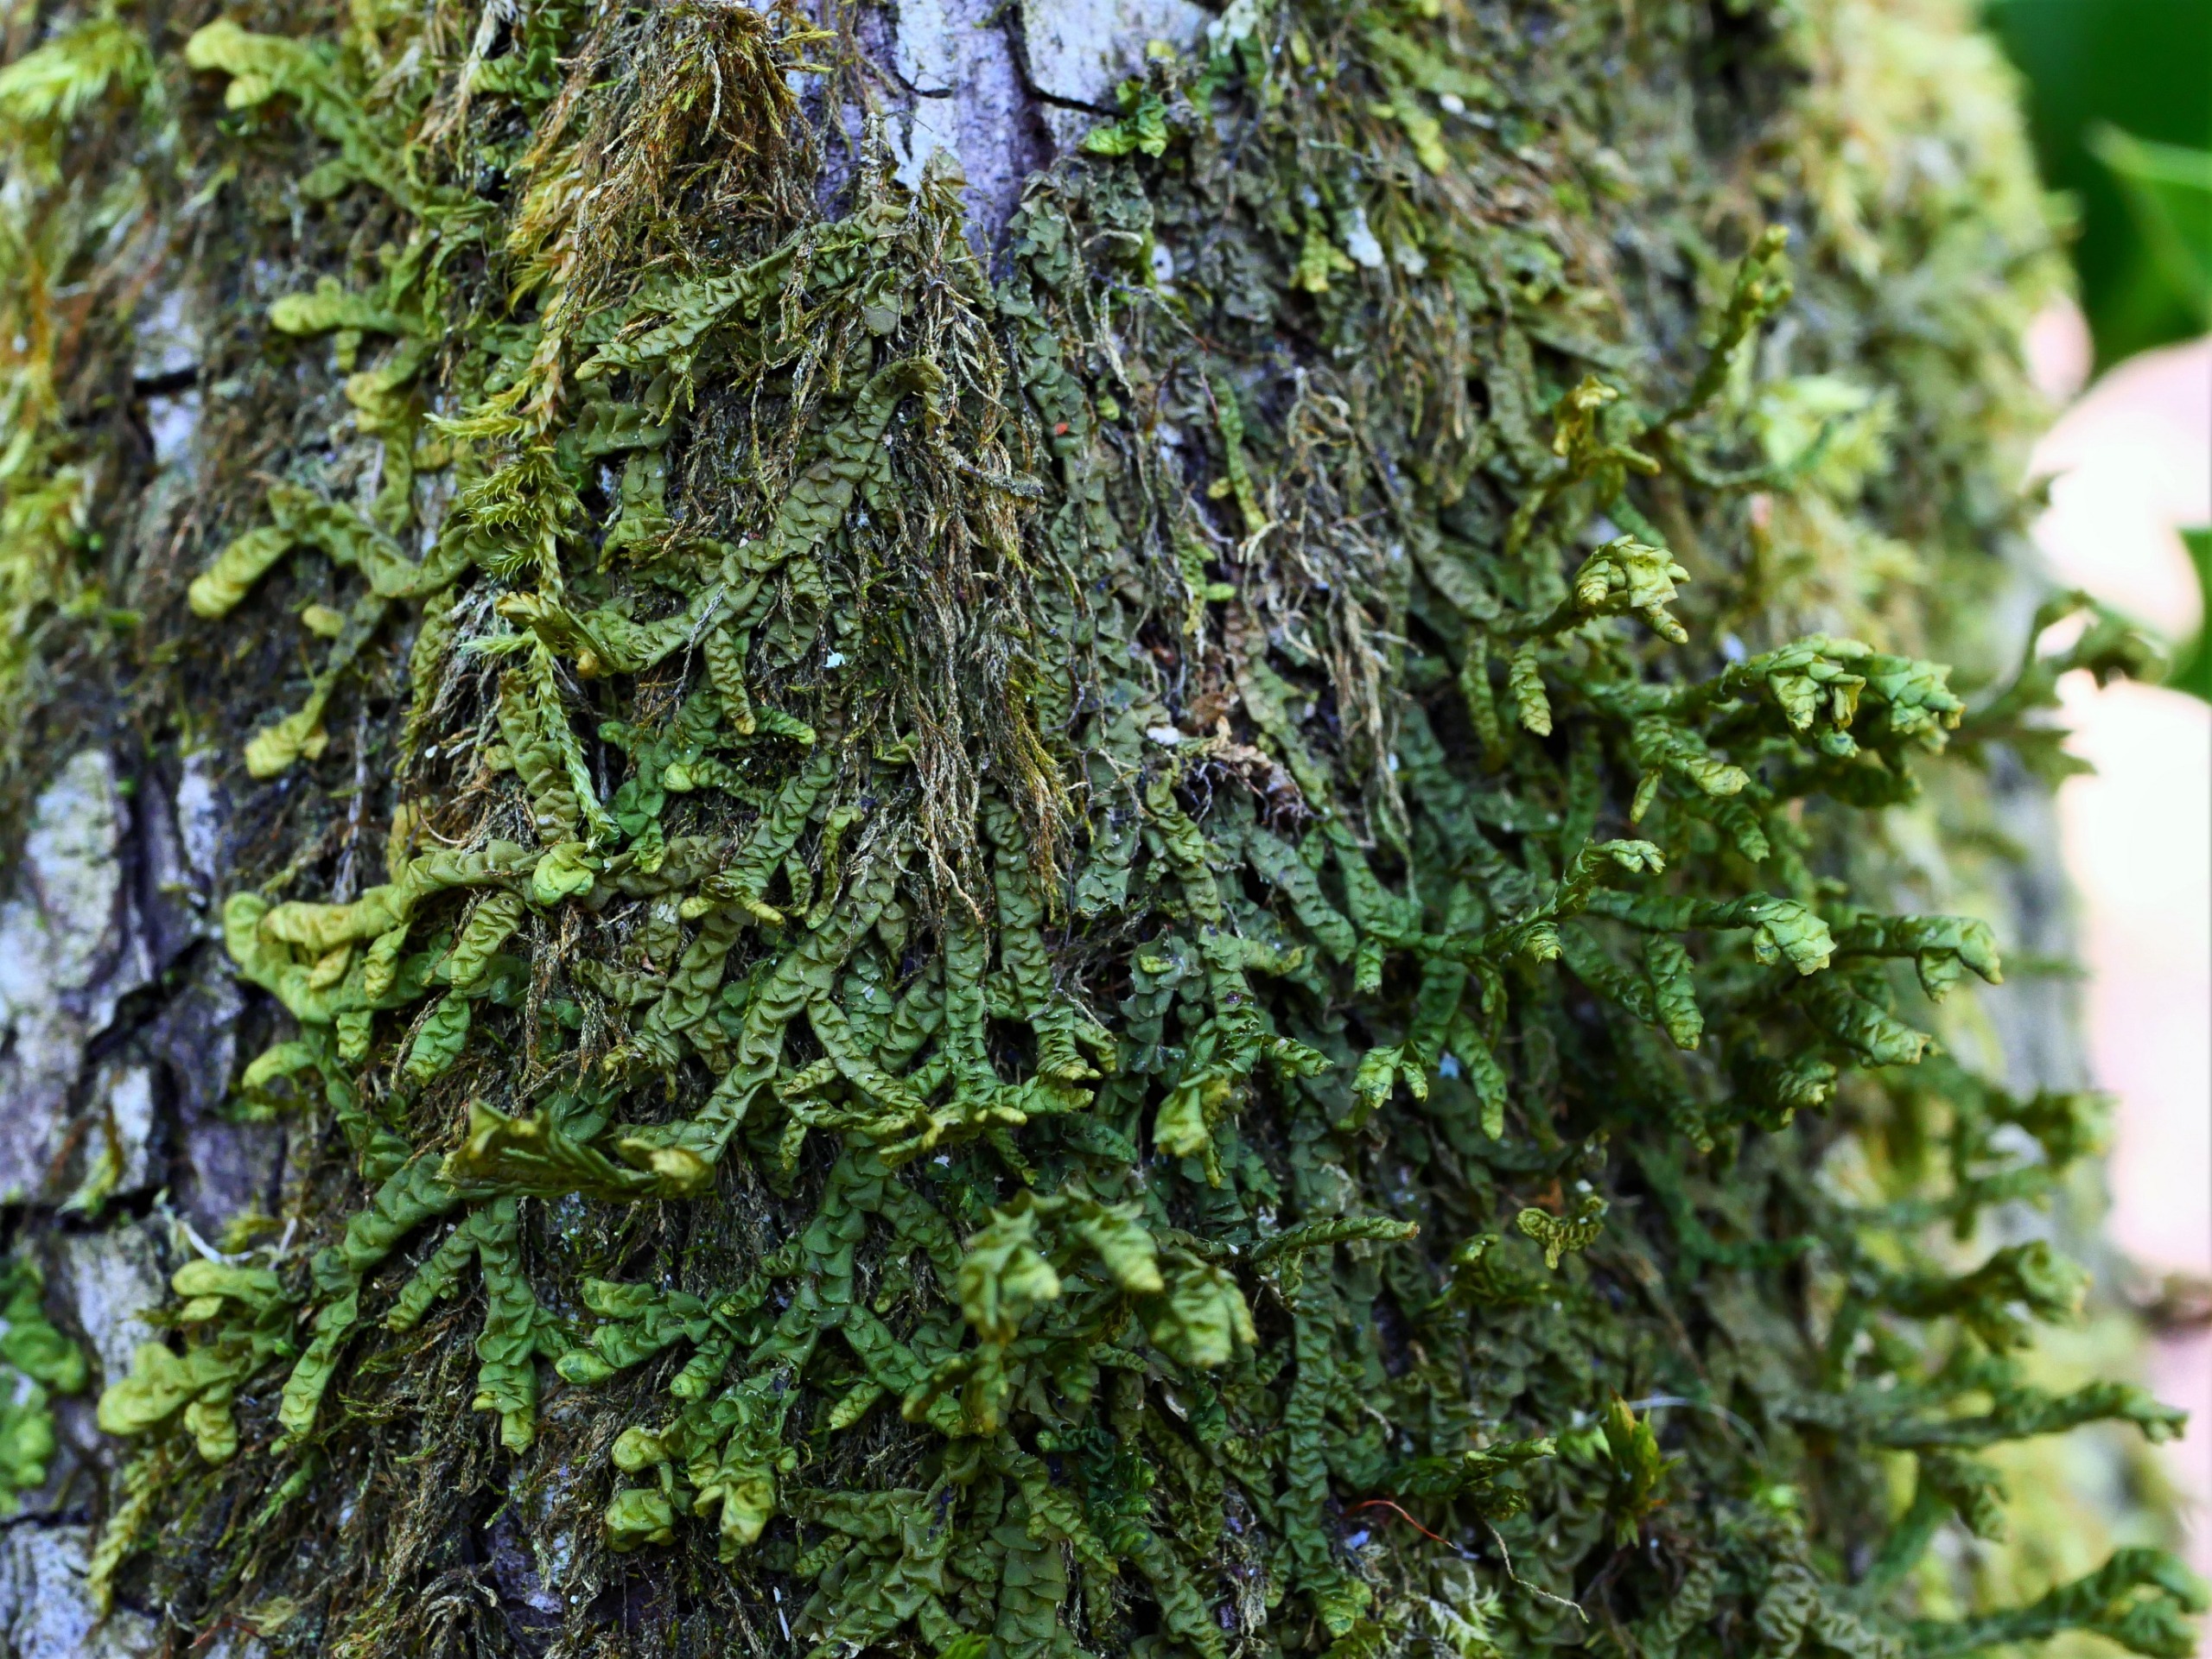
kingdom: Plantae
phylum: Marchantiophyta
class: Jungermanniopsida
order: Porellales
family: Porellaceae
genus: Porella
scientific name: Porella platyphylla
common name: Almindelig skælryg
